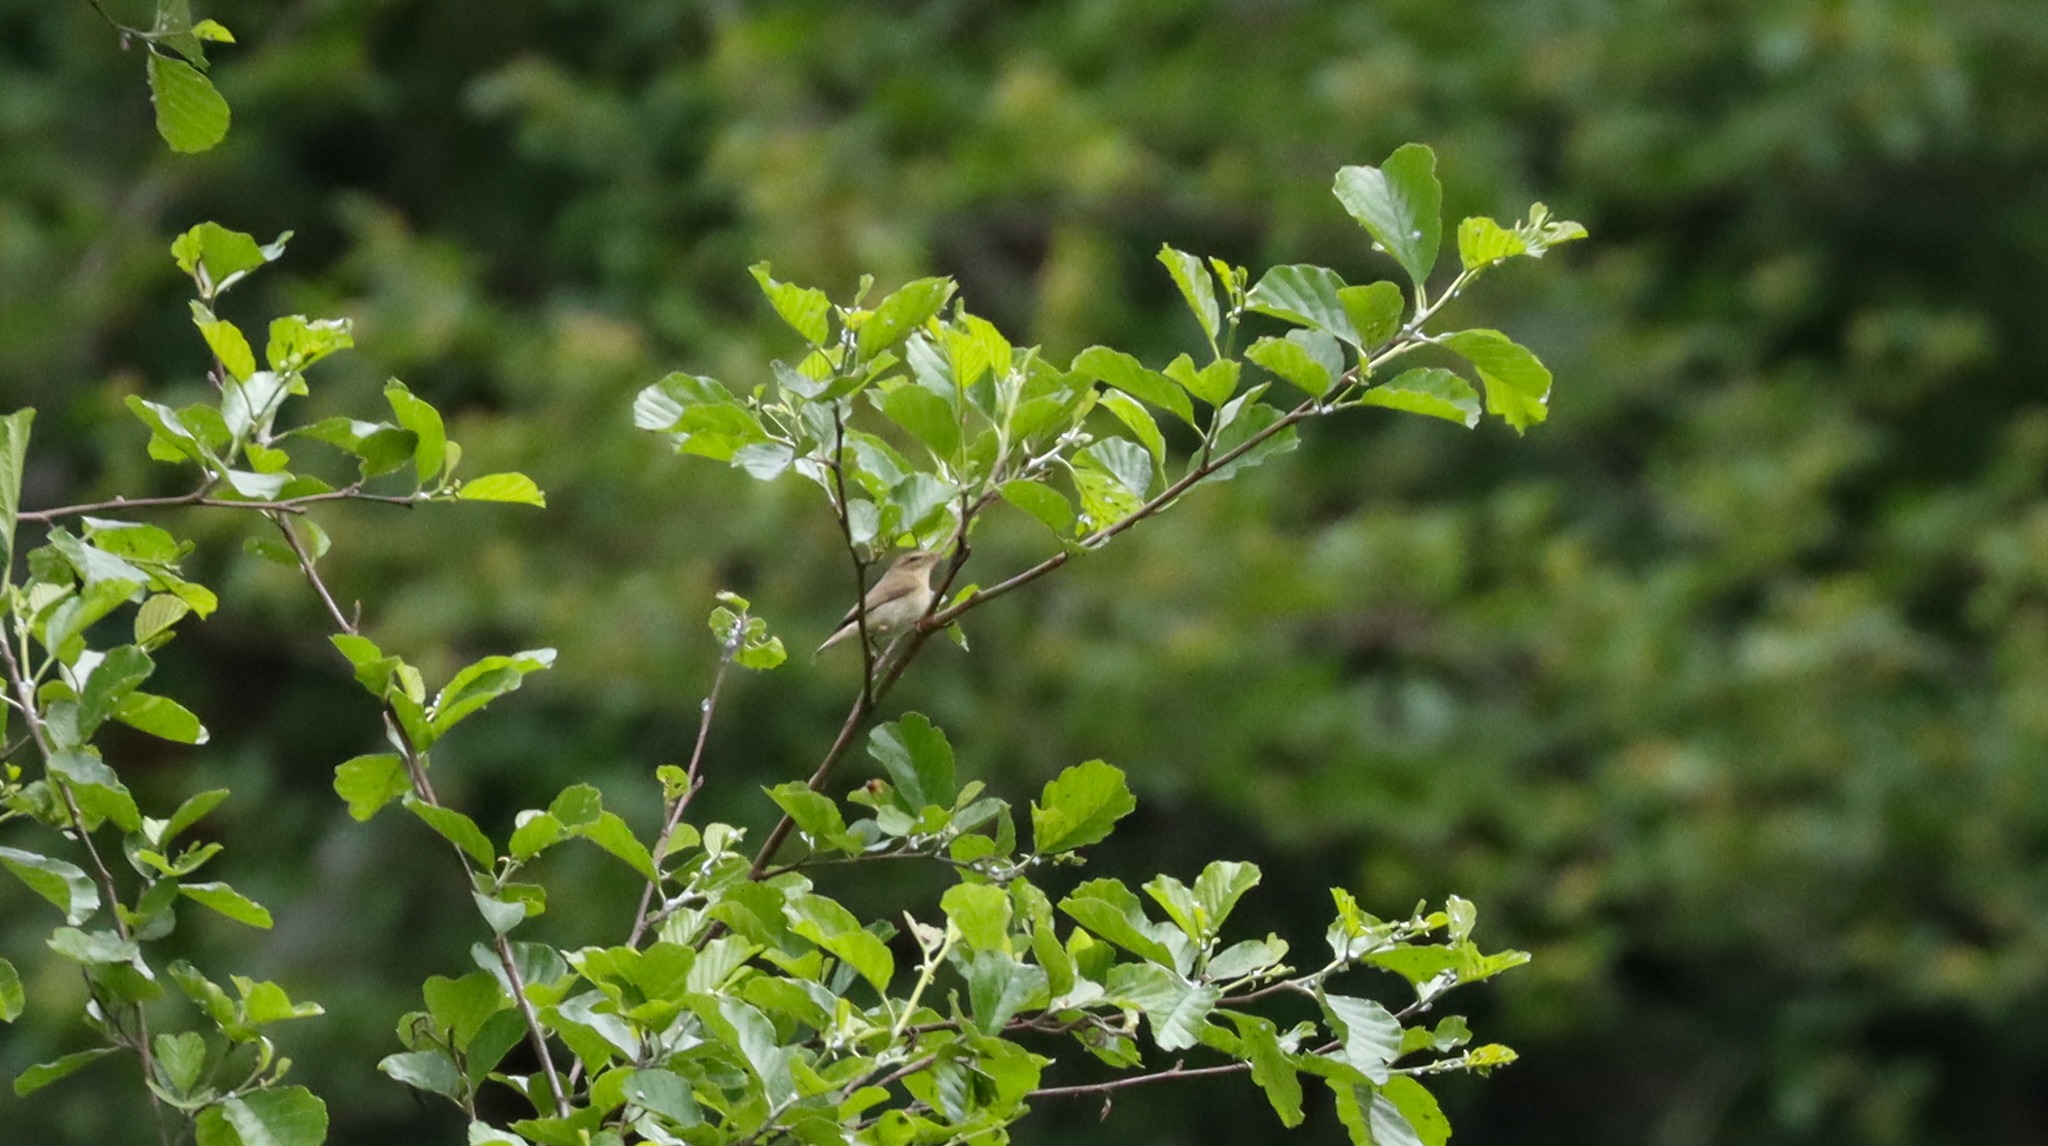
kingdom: Animalia
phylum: Chordata
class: Aves
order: Passeriformes
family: Phylloscopidae
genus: Phylloscopus
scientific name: Phylloscopus trochilus
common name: Løvsanger
